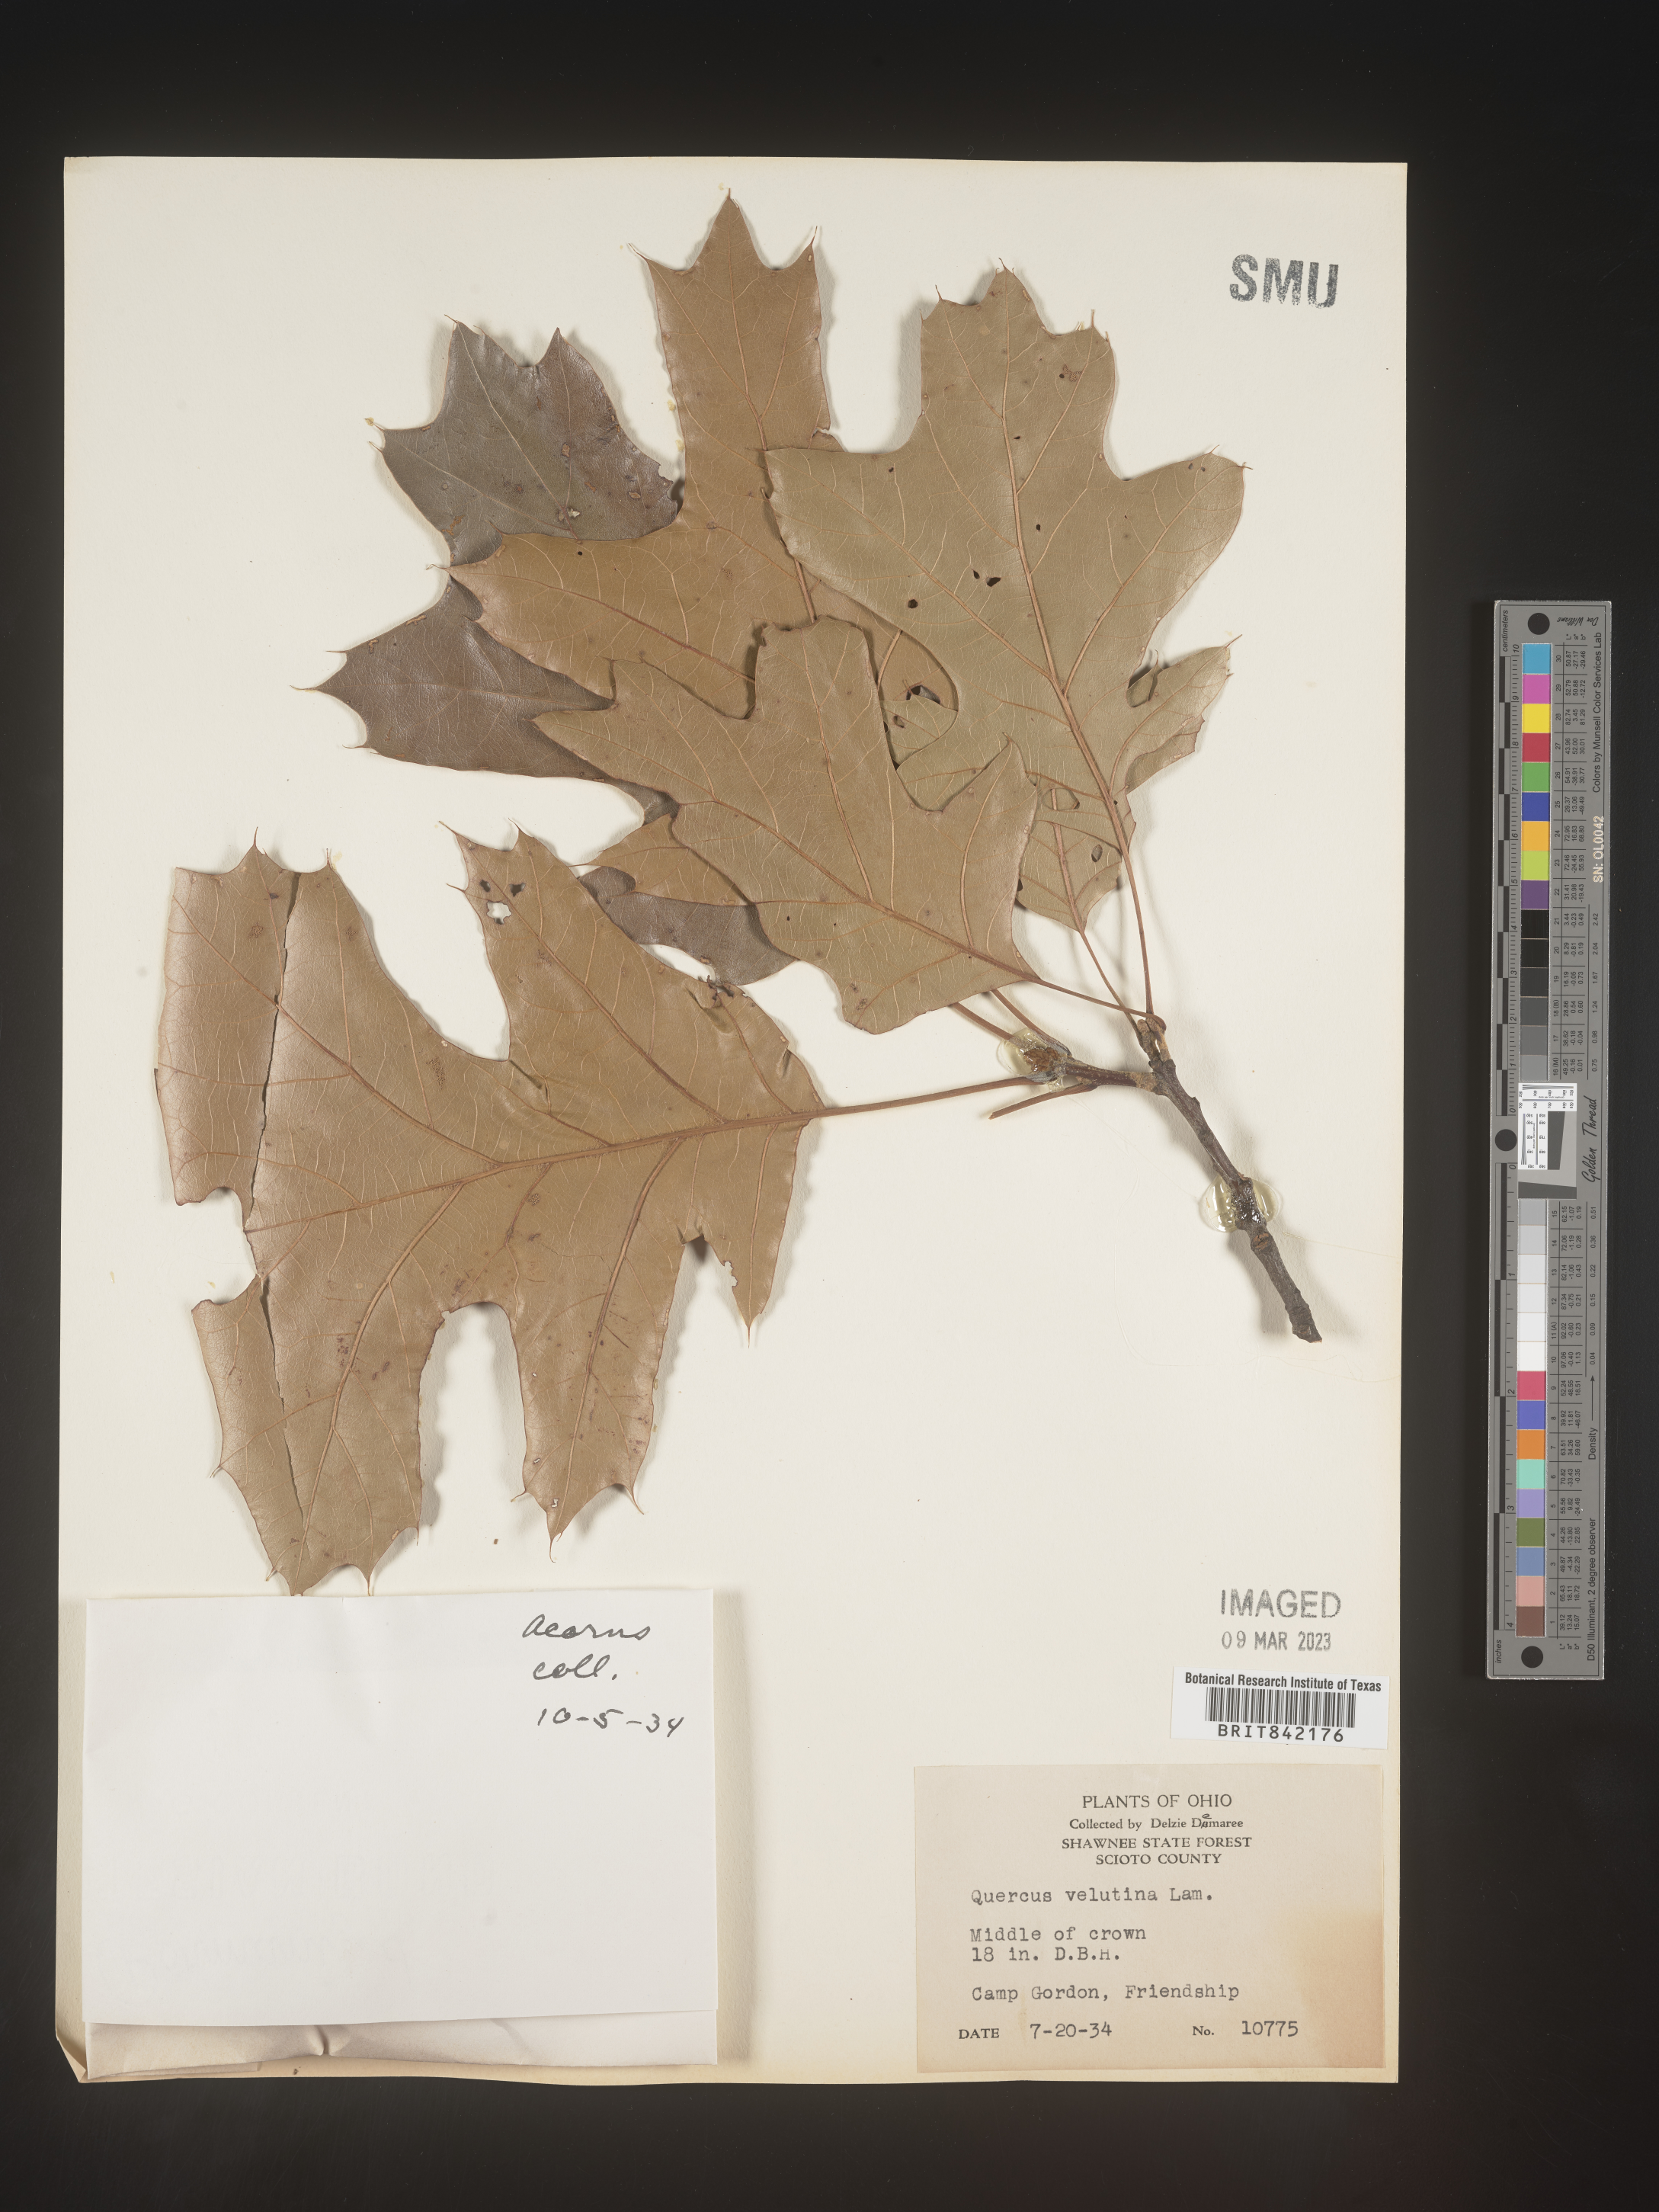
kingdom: Plantae
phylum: Tracheophyta
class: Magnoliopsida
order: Fagales
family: Fagaceae
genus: Quercus
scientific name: Quercus velutina
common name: Black oak
